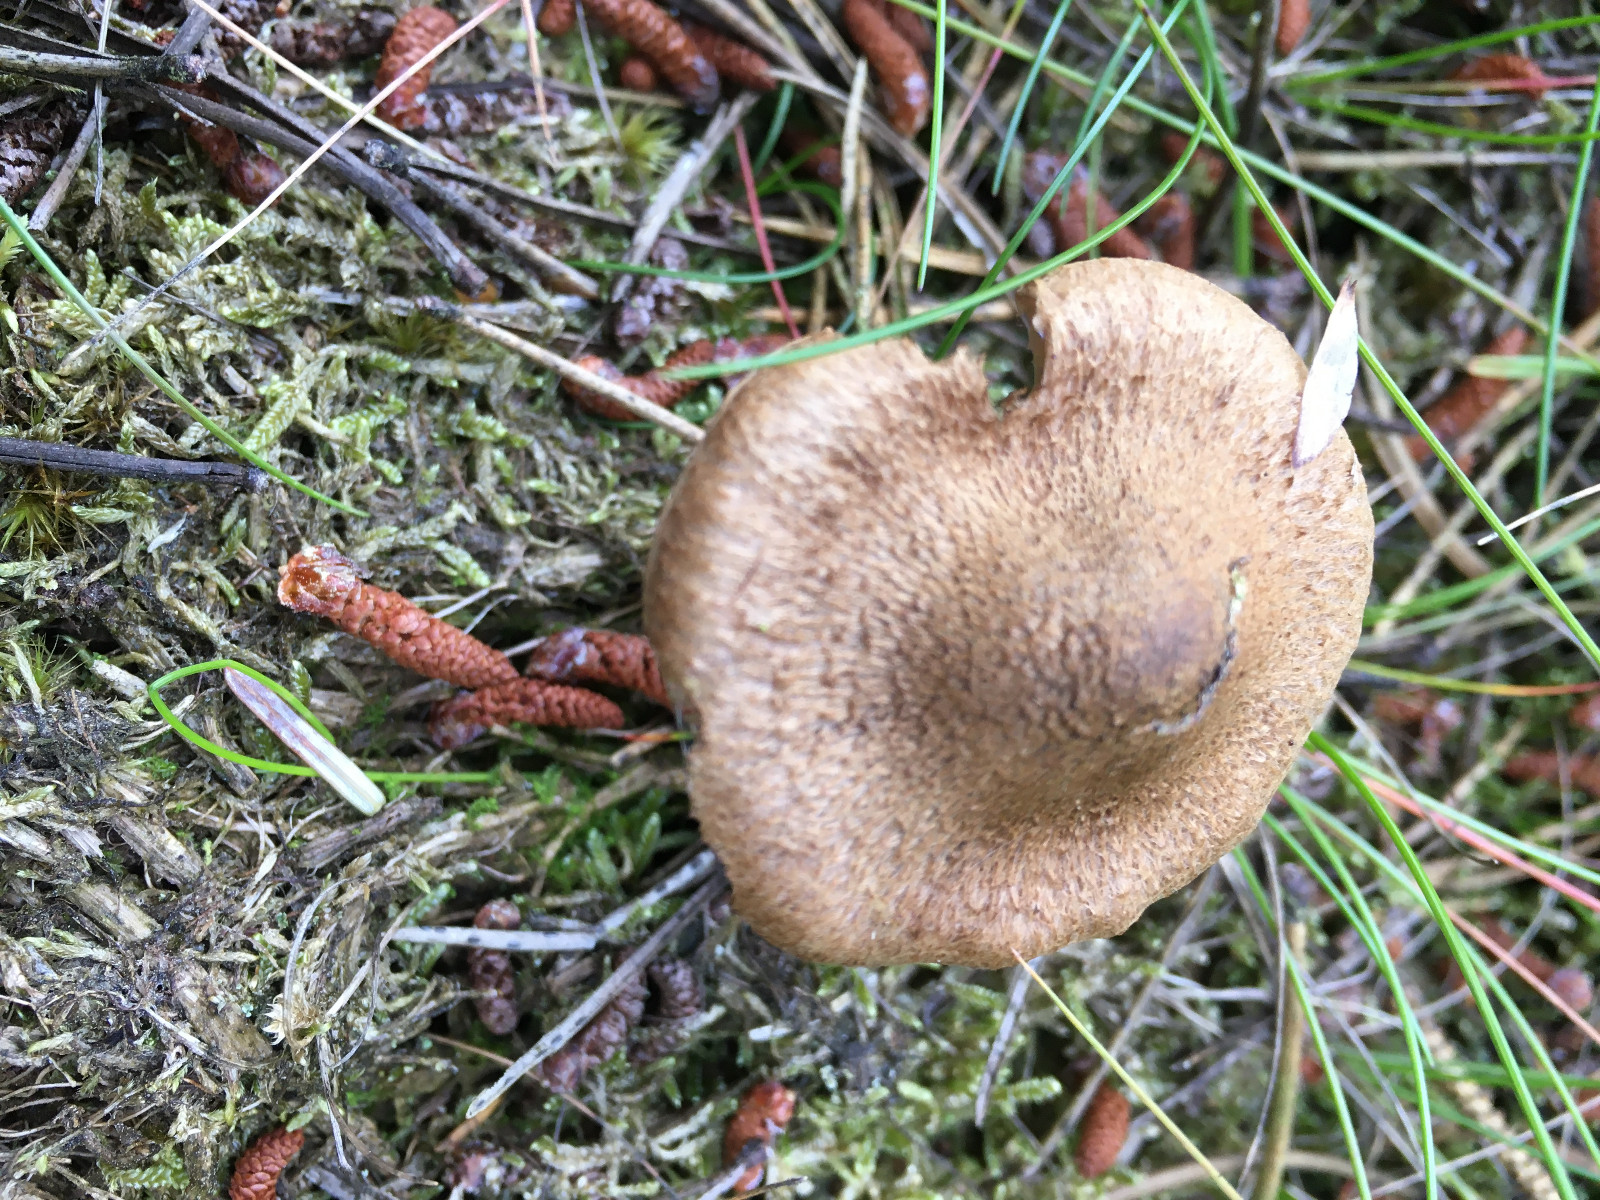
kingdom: Fungi
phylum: Basidiomycota
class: Agaricomycetes
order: Agaricales
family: Inocybaceae
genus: Inocybe
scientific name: Inocybe subcarpta
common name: plantage-trævlhat
